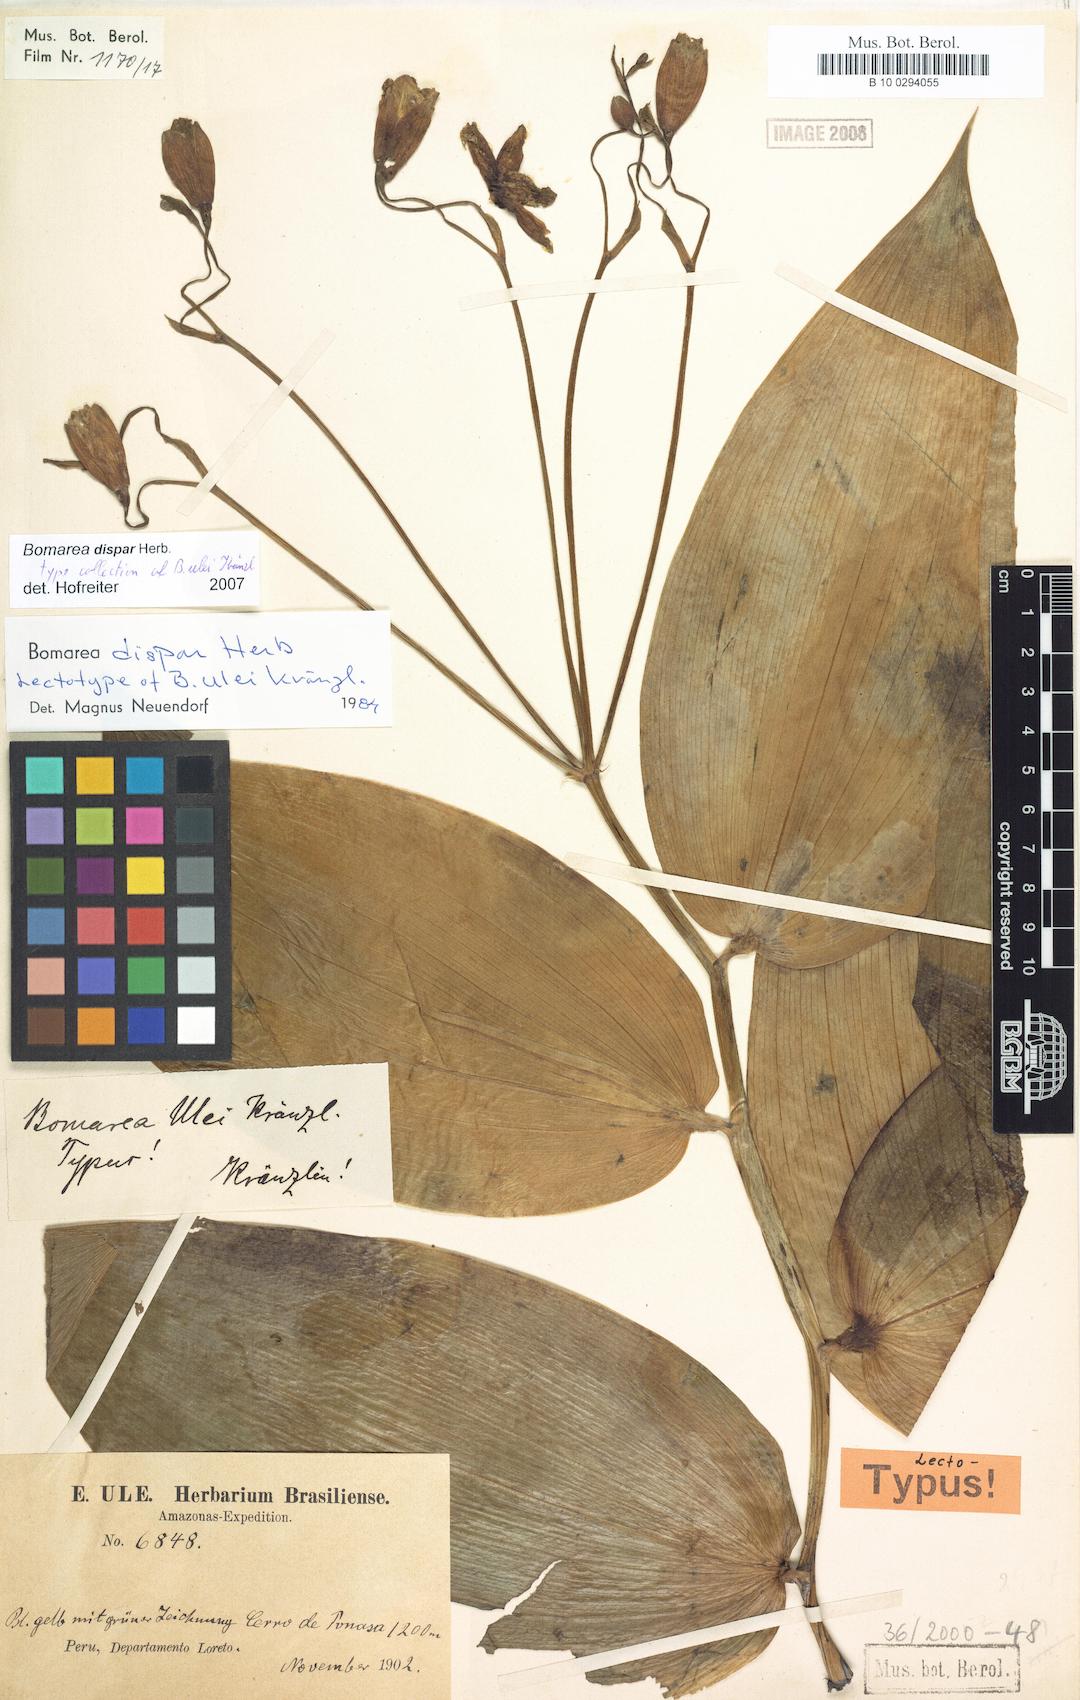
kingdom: Plantae
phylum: Tracheophyta
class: Liliopsida
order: Liliales
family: Alstroemeriaceae
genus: Bomarea
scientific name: Bomarea dispar
